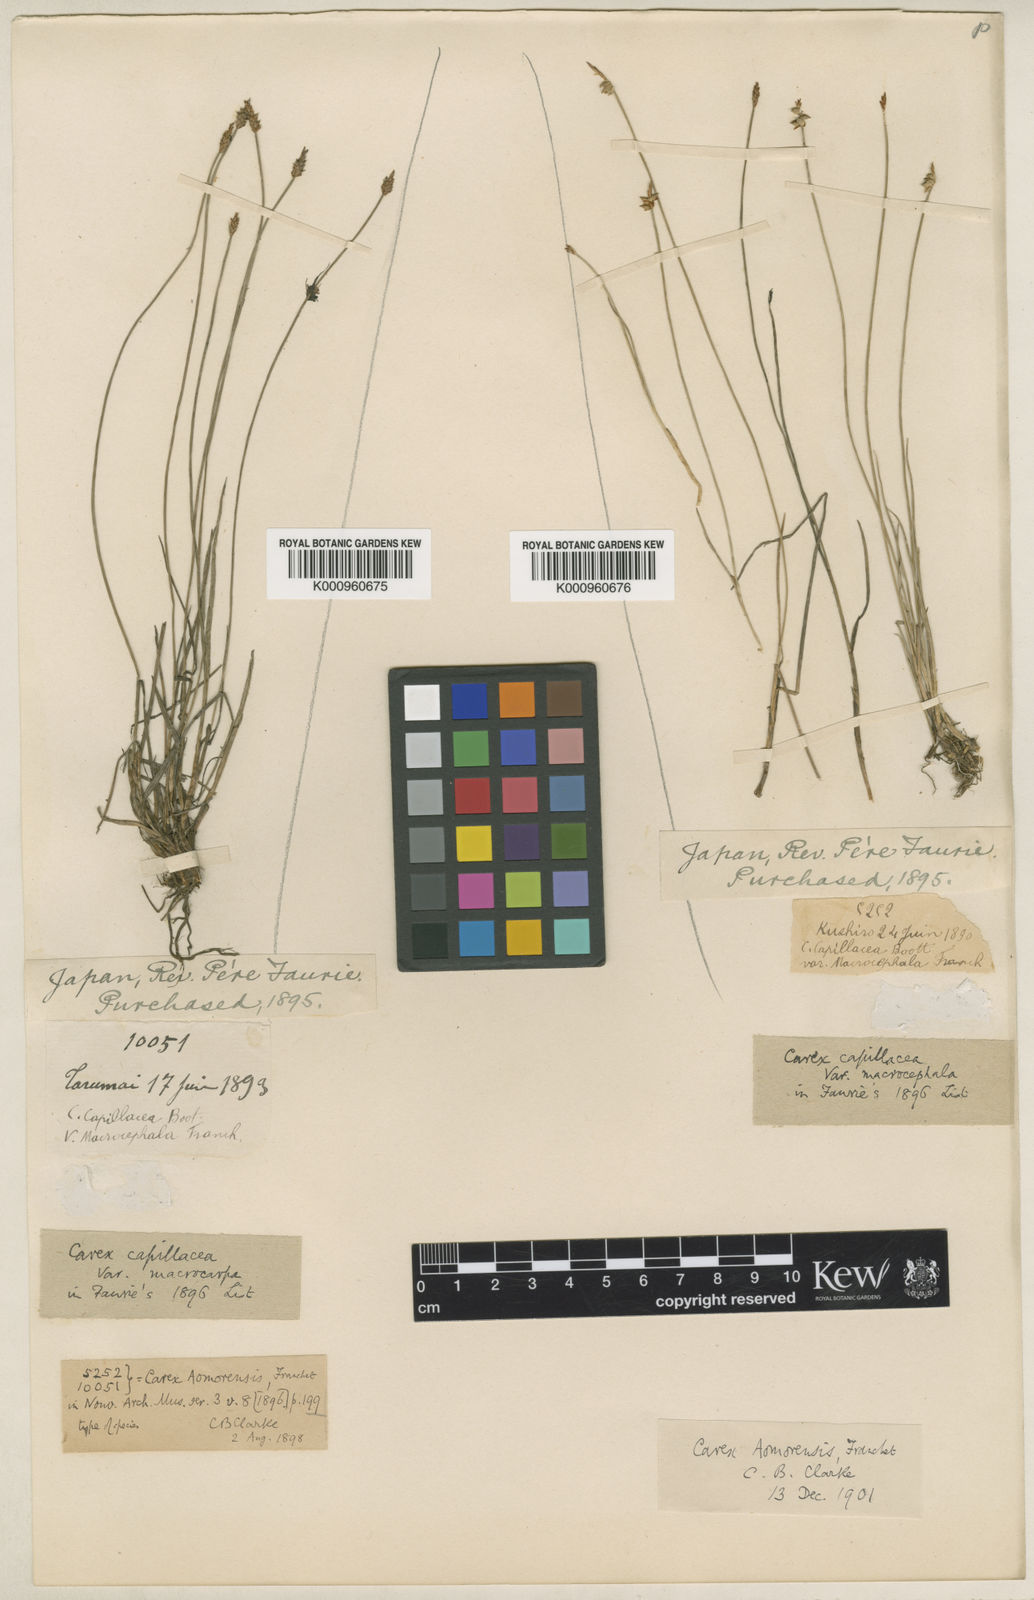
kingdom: Plantae
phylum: Tracheophyta
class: Liliopsida
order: Poales
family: Cyperaceae
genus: Carex
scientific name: Carex rara
